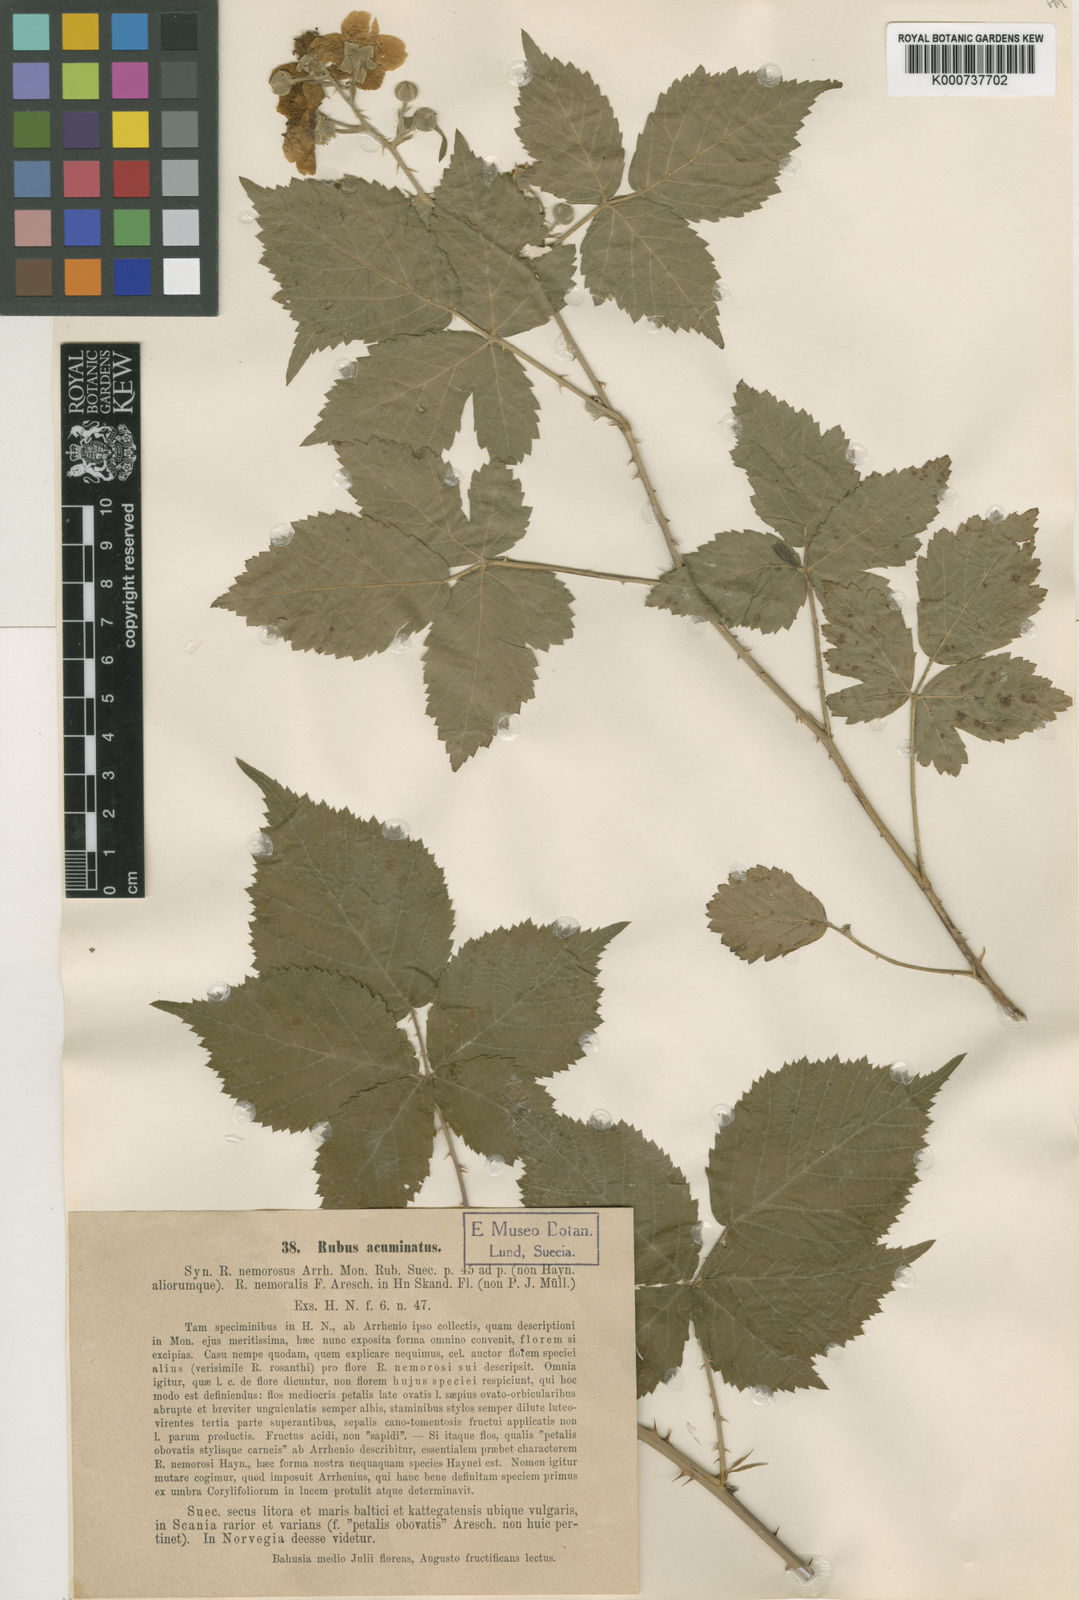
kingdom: Plantae
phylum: Tracheophyta
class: Magnoliopsida
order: Rosales
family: Rosaceae
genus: Rubus
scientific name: Rubus
